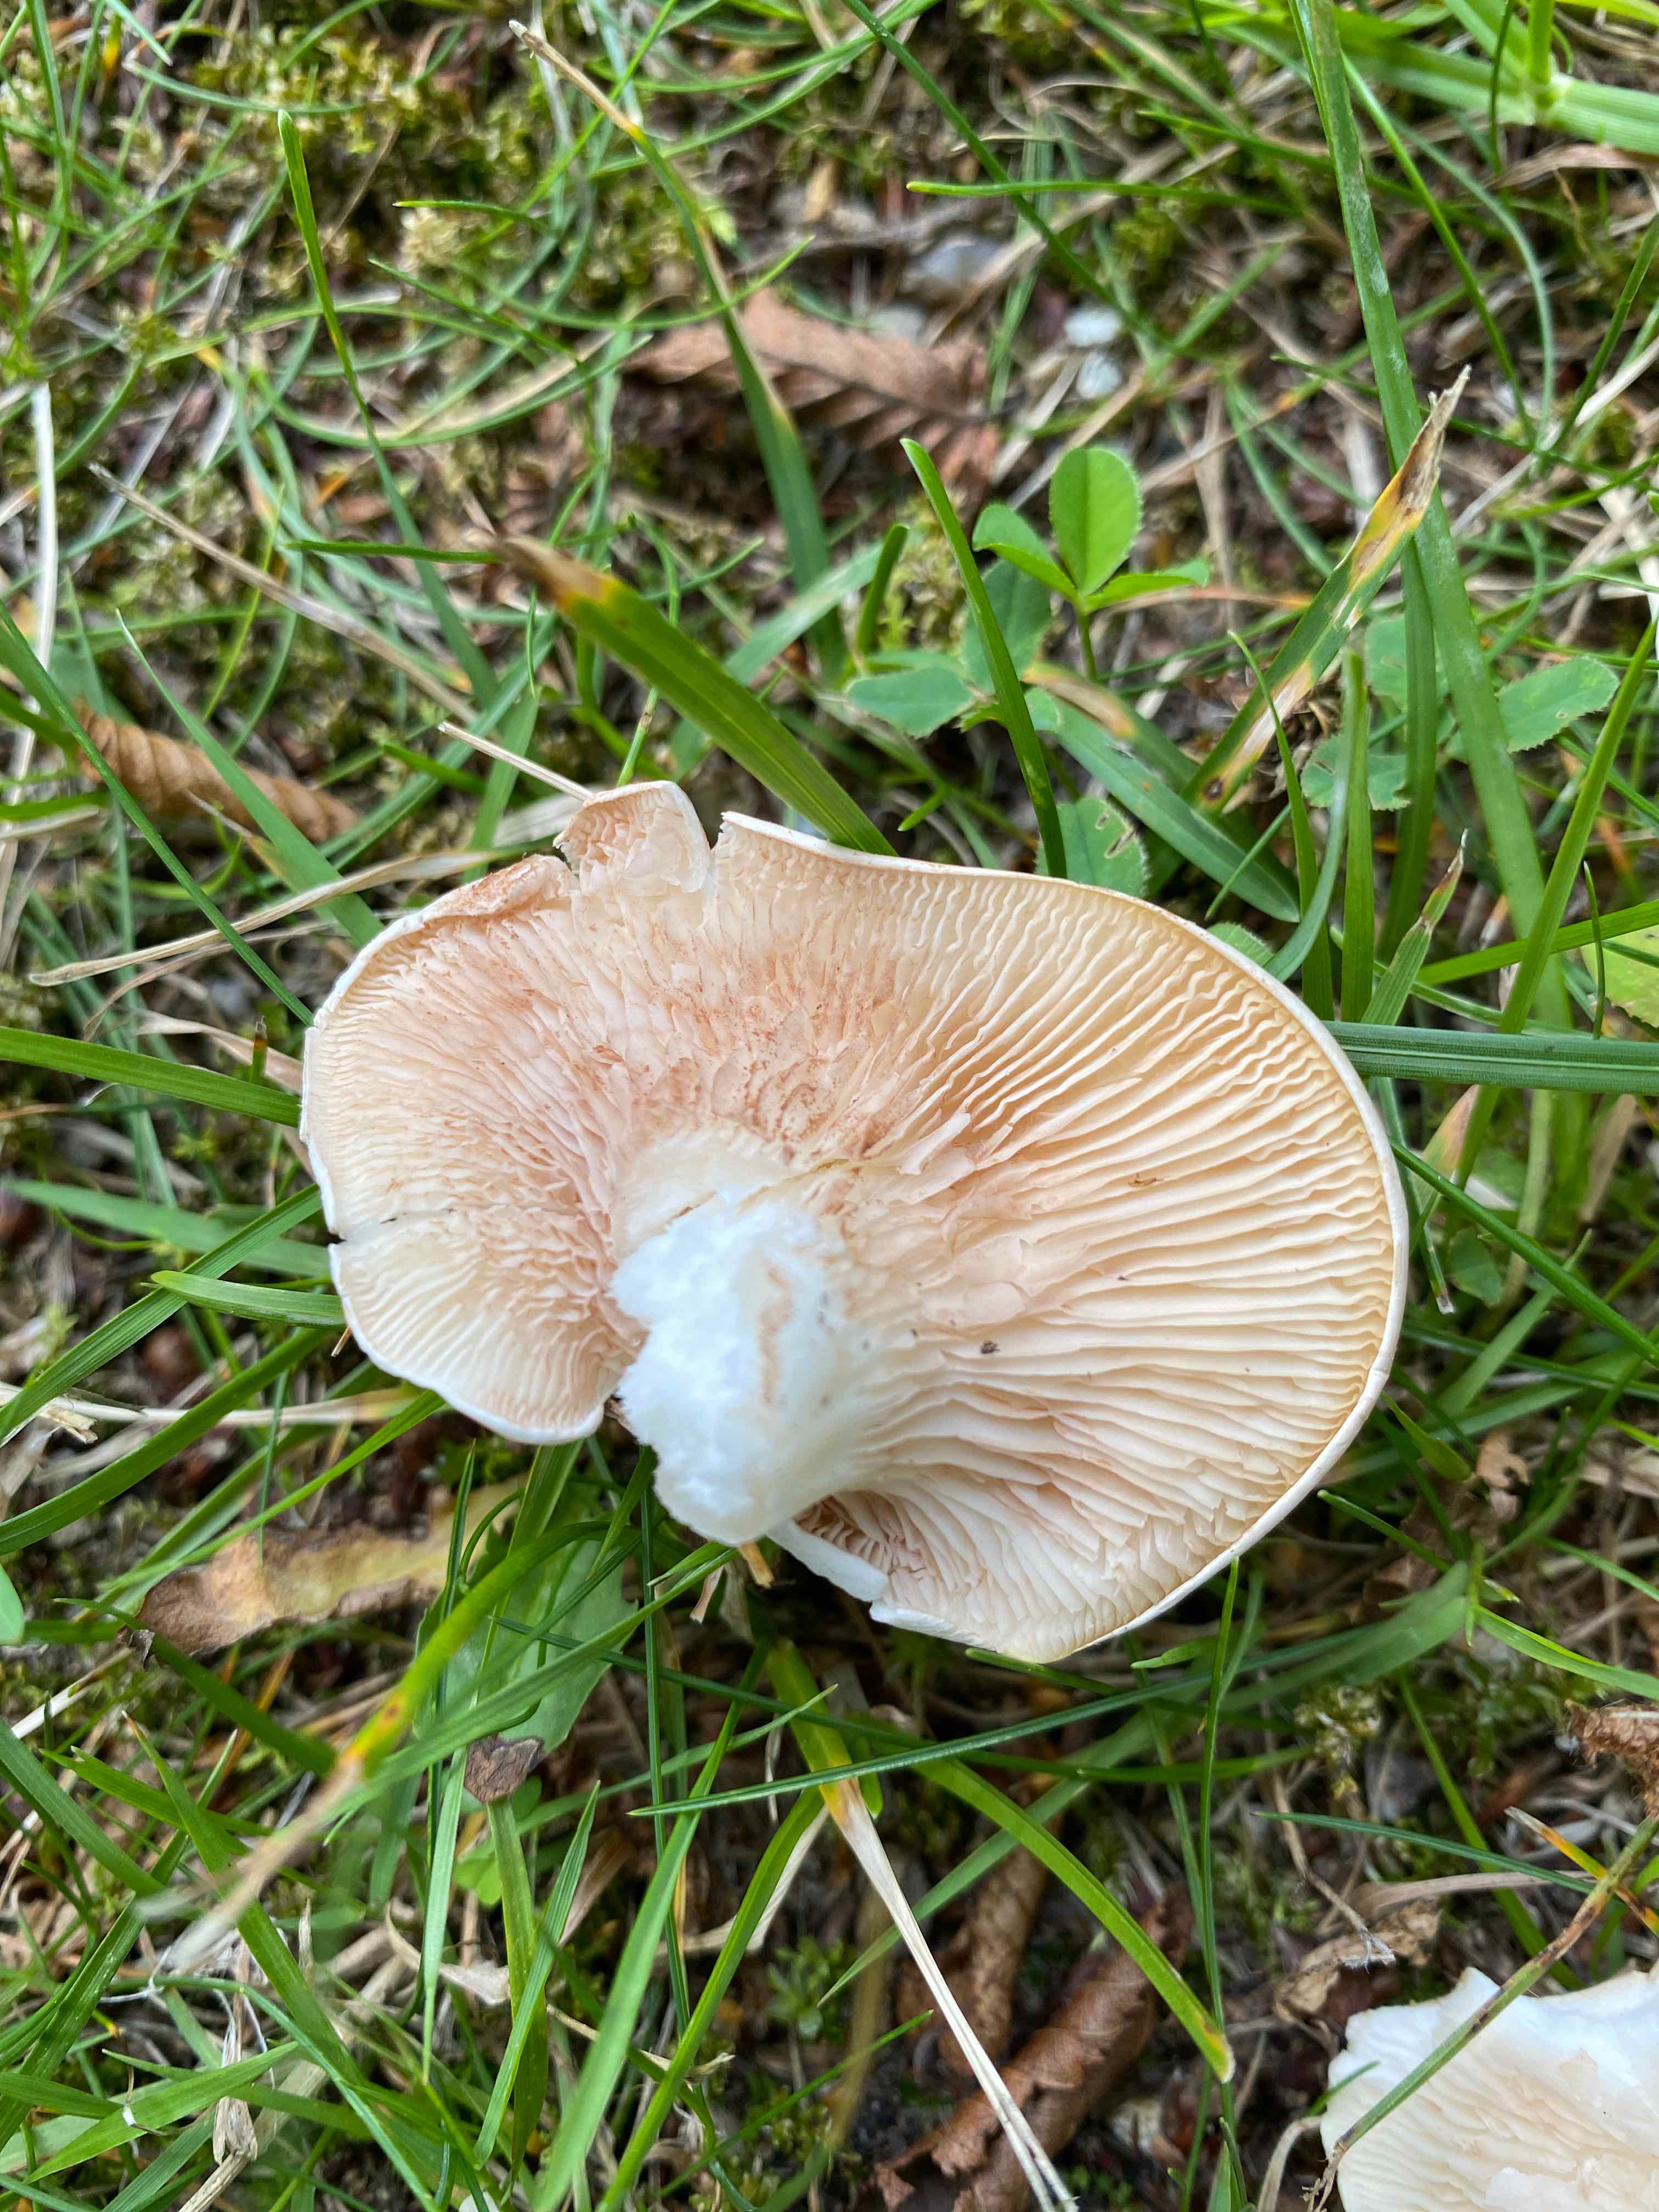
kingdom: Fungi
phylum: Basidiomycota
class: Agaricomycetes
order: Agaricales
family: Entolomataceae
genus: Clitopilus
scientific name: Clitopilus prunulus
